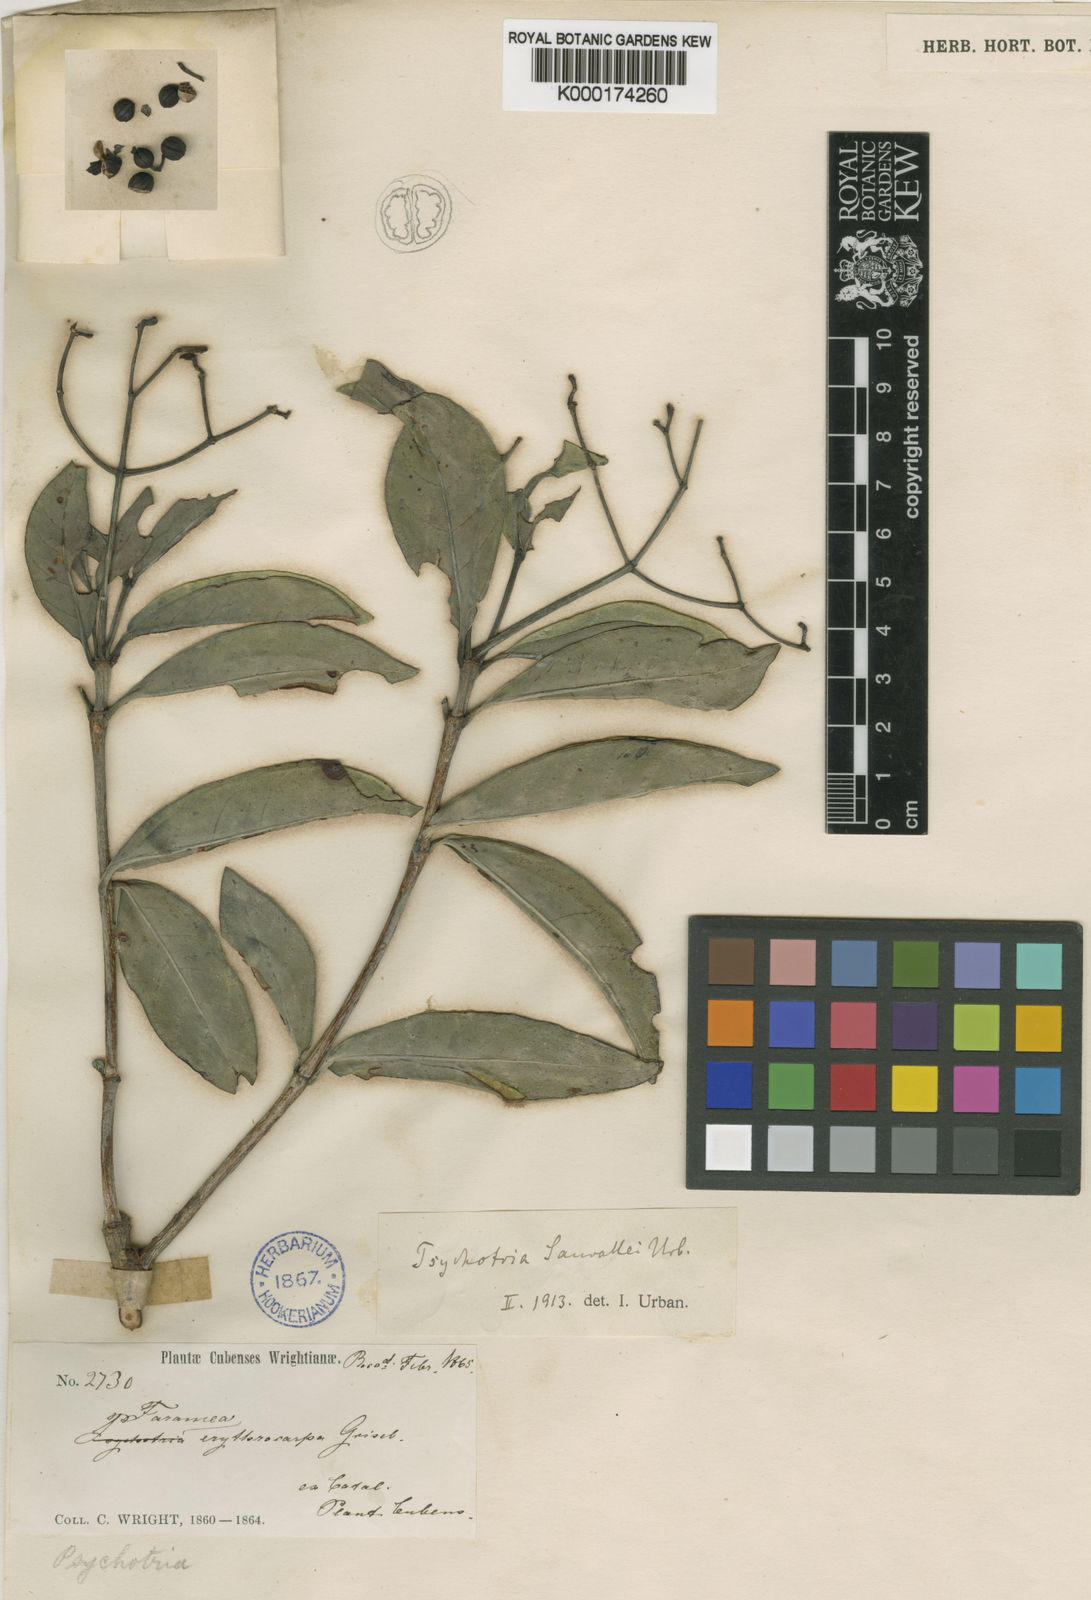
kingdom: Plantae
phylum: Tracheophyta
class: Magnoliopsida
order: Gentianales
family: Rubiaceae
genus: Psychotria
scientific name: Psychotria sauvallei
